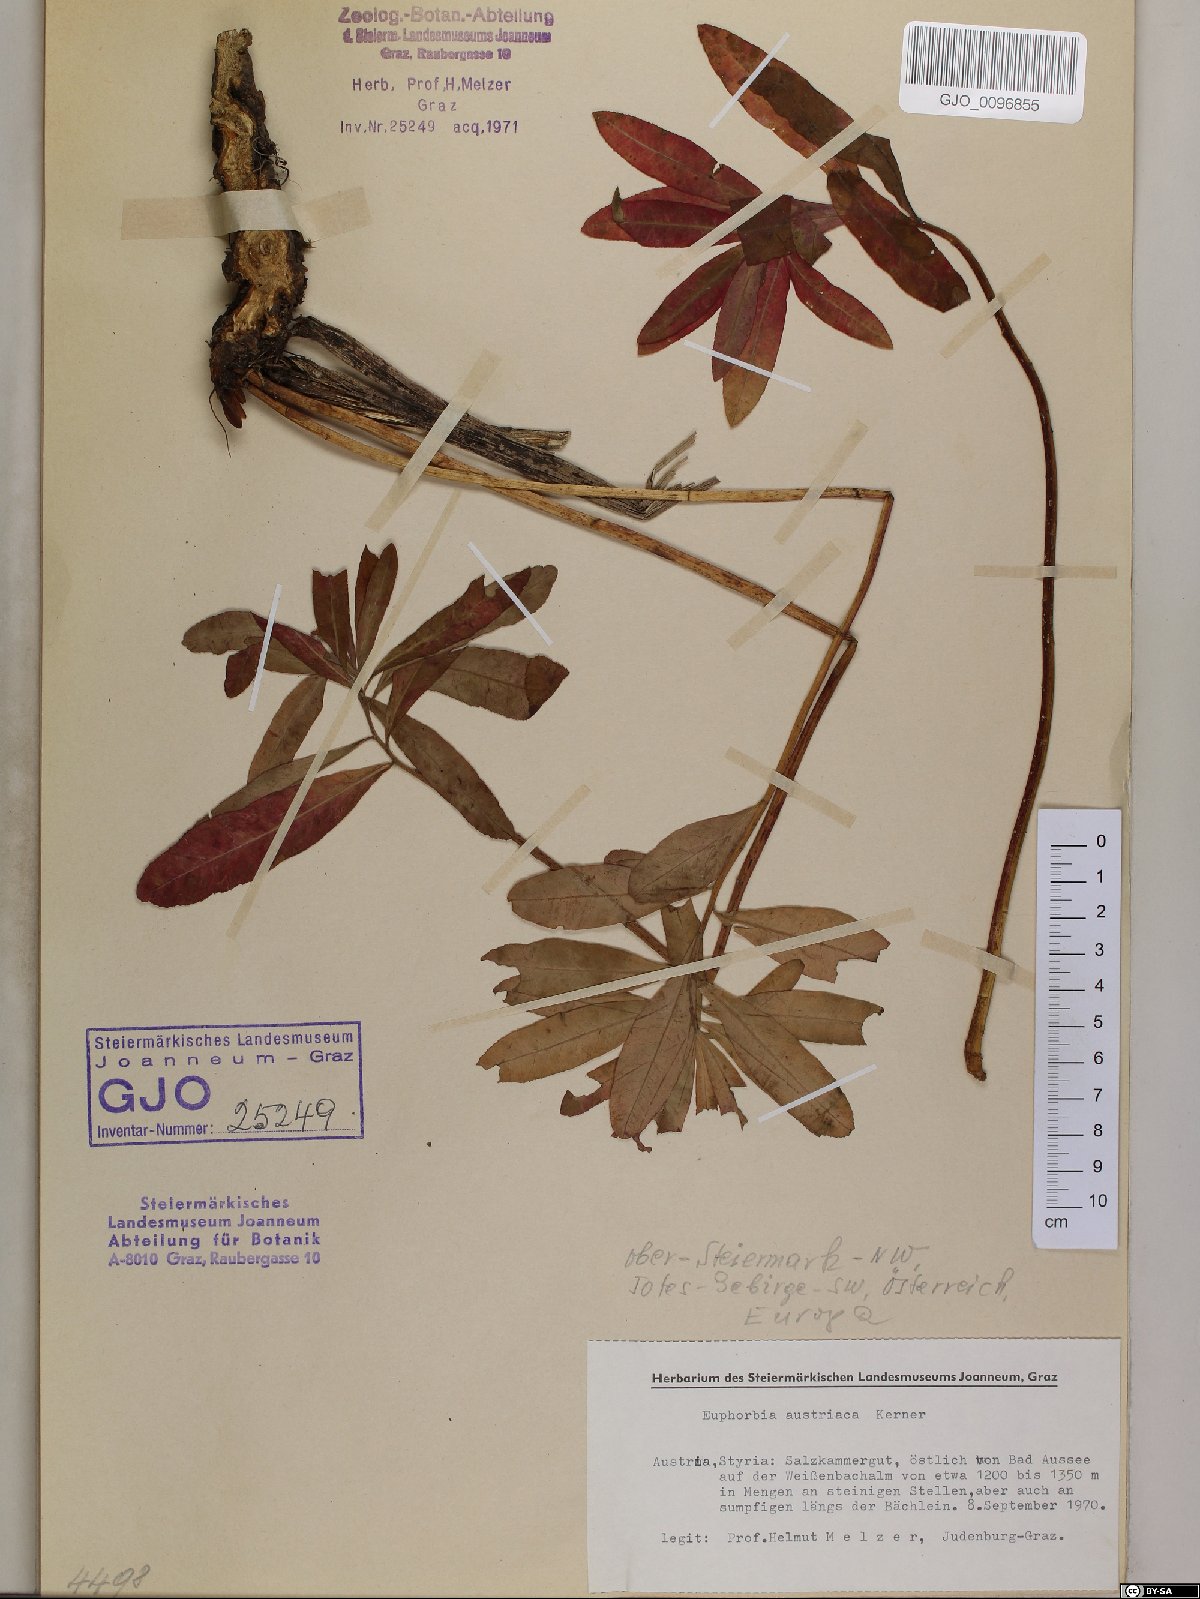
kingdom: Plantae
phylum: Tracheophyta
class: Magnoliopsida
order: Malpighiales
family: Euphorbiaceae
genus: Euphorbia
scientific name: Euphorbia austriaca
